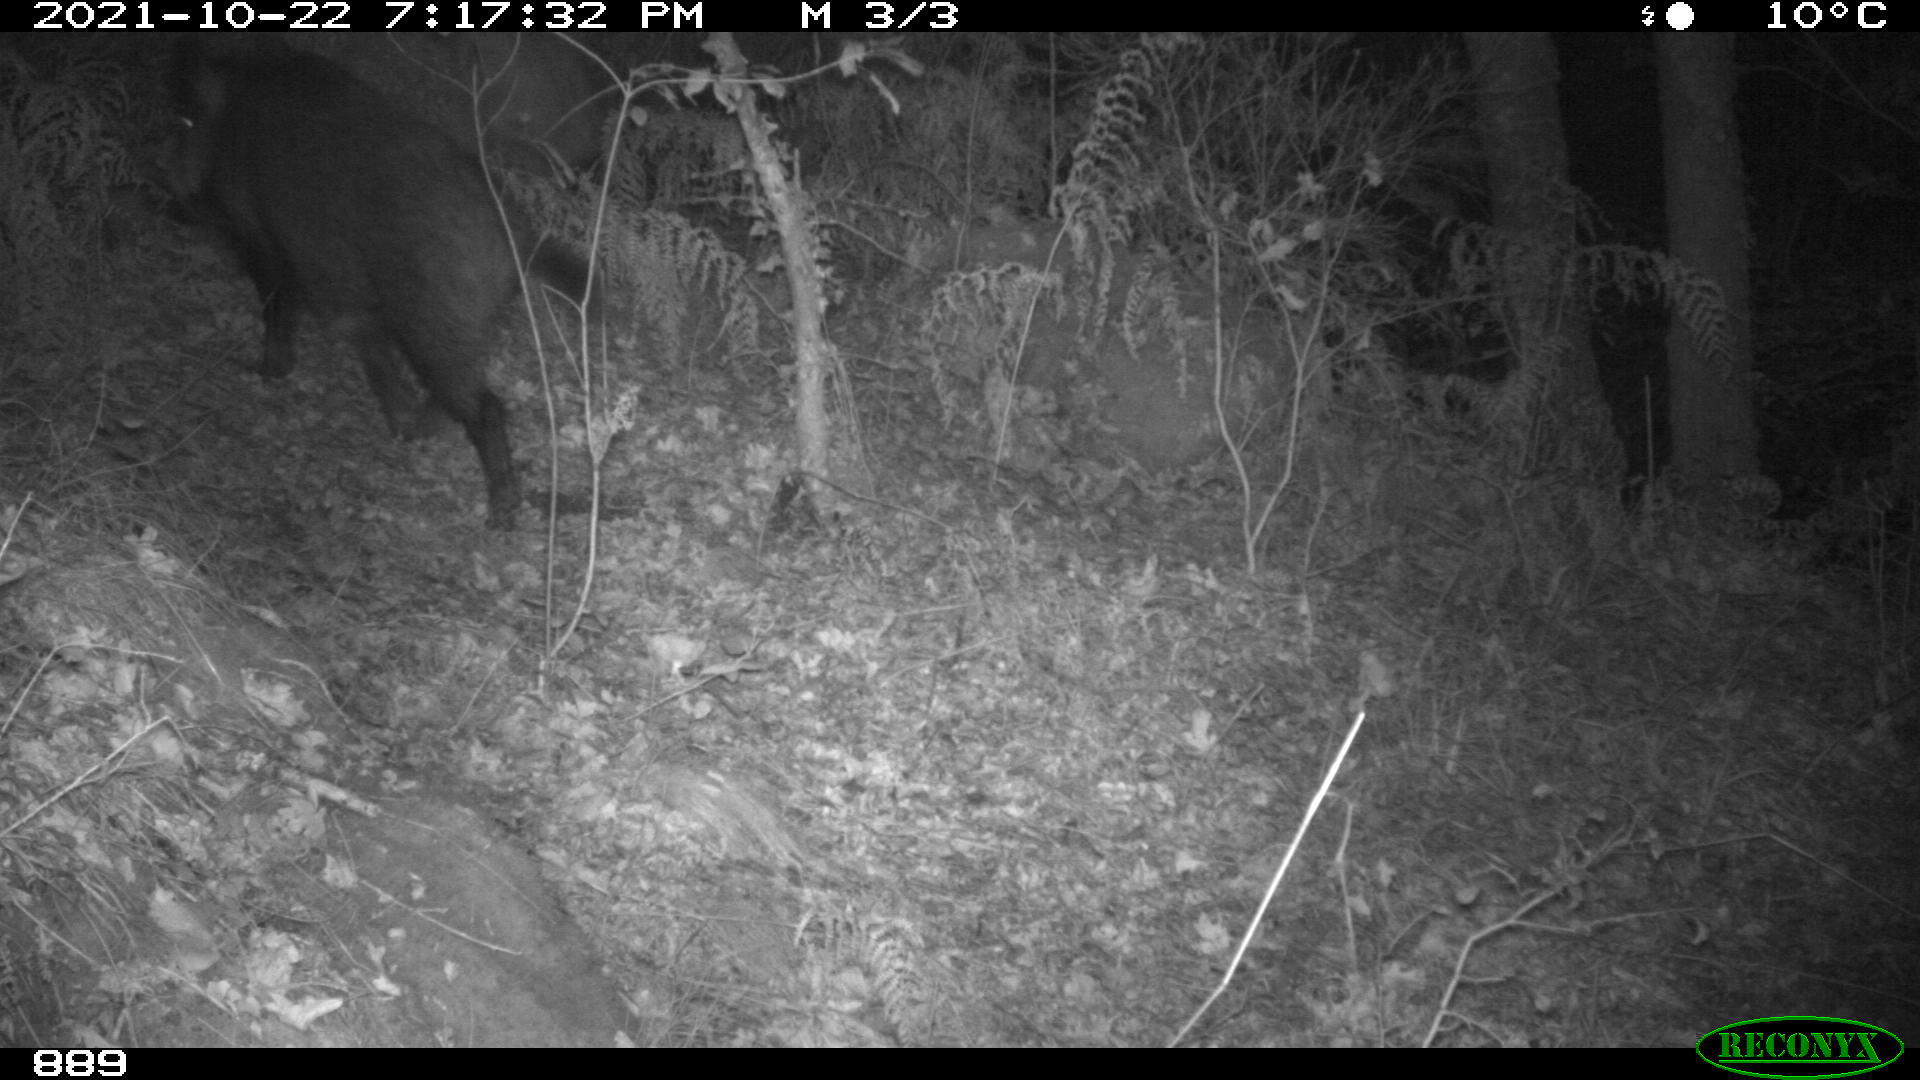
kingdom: Animalia
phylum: Chordata
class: Mammalia
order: Artiodactyla
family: Suidae
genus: Sus
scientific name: Sus scrofa
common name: Wild boar
